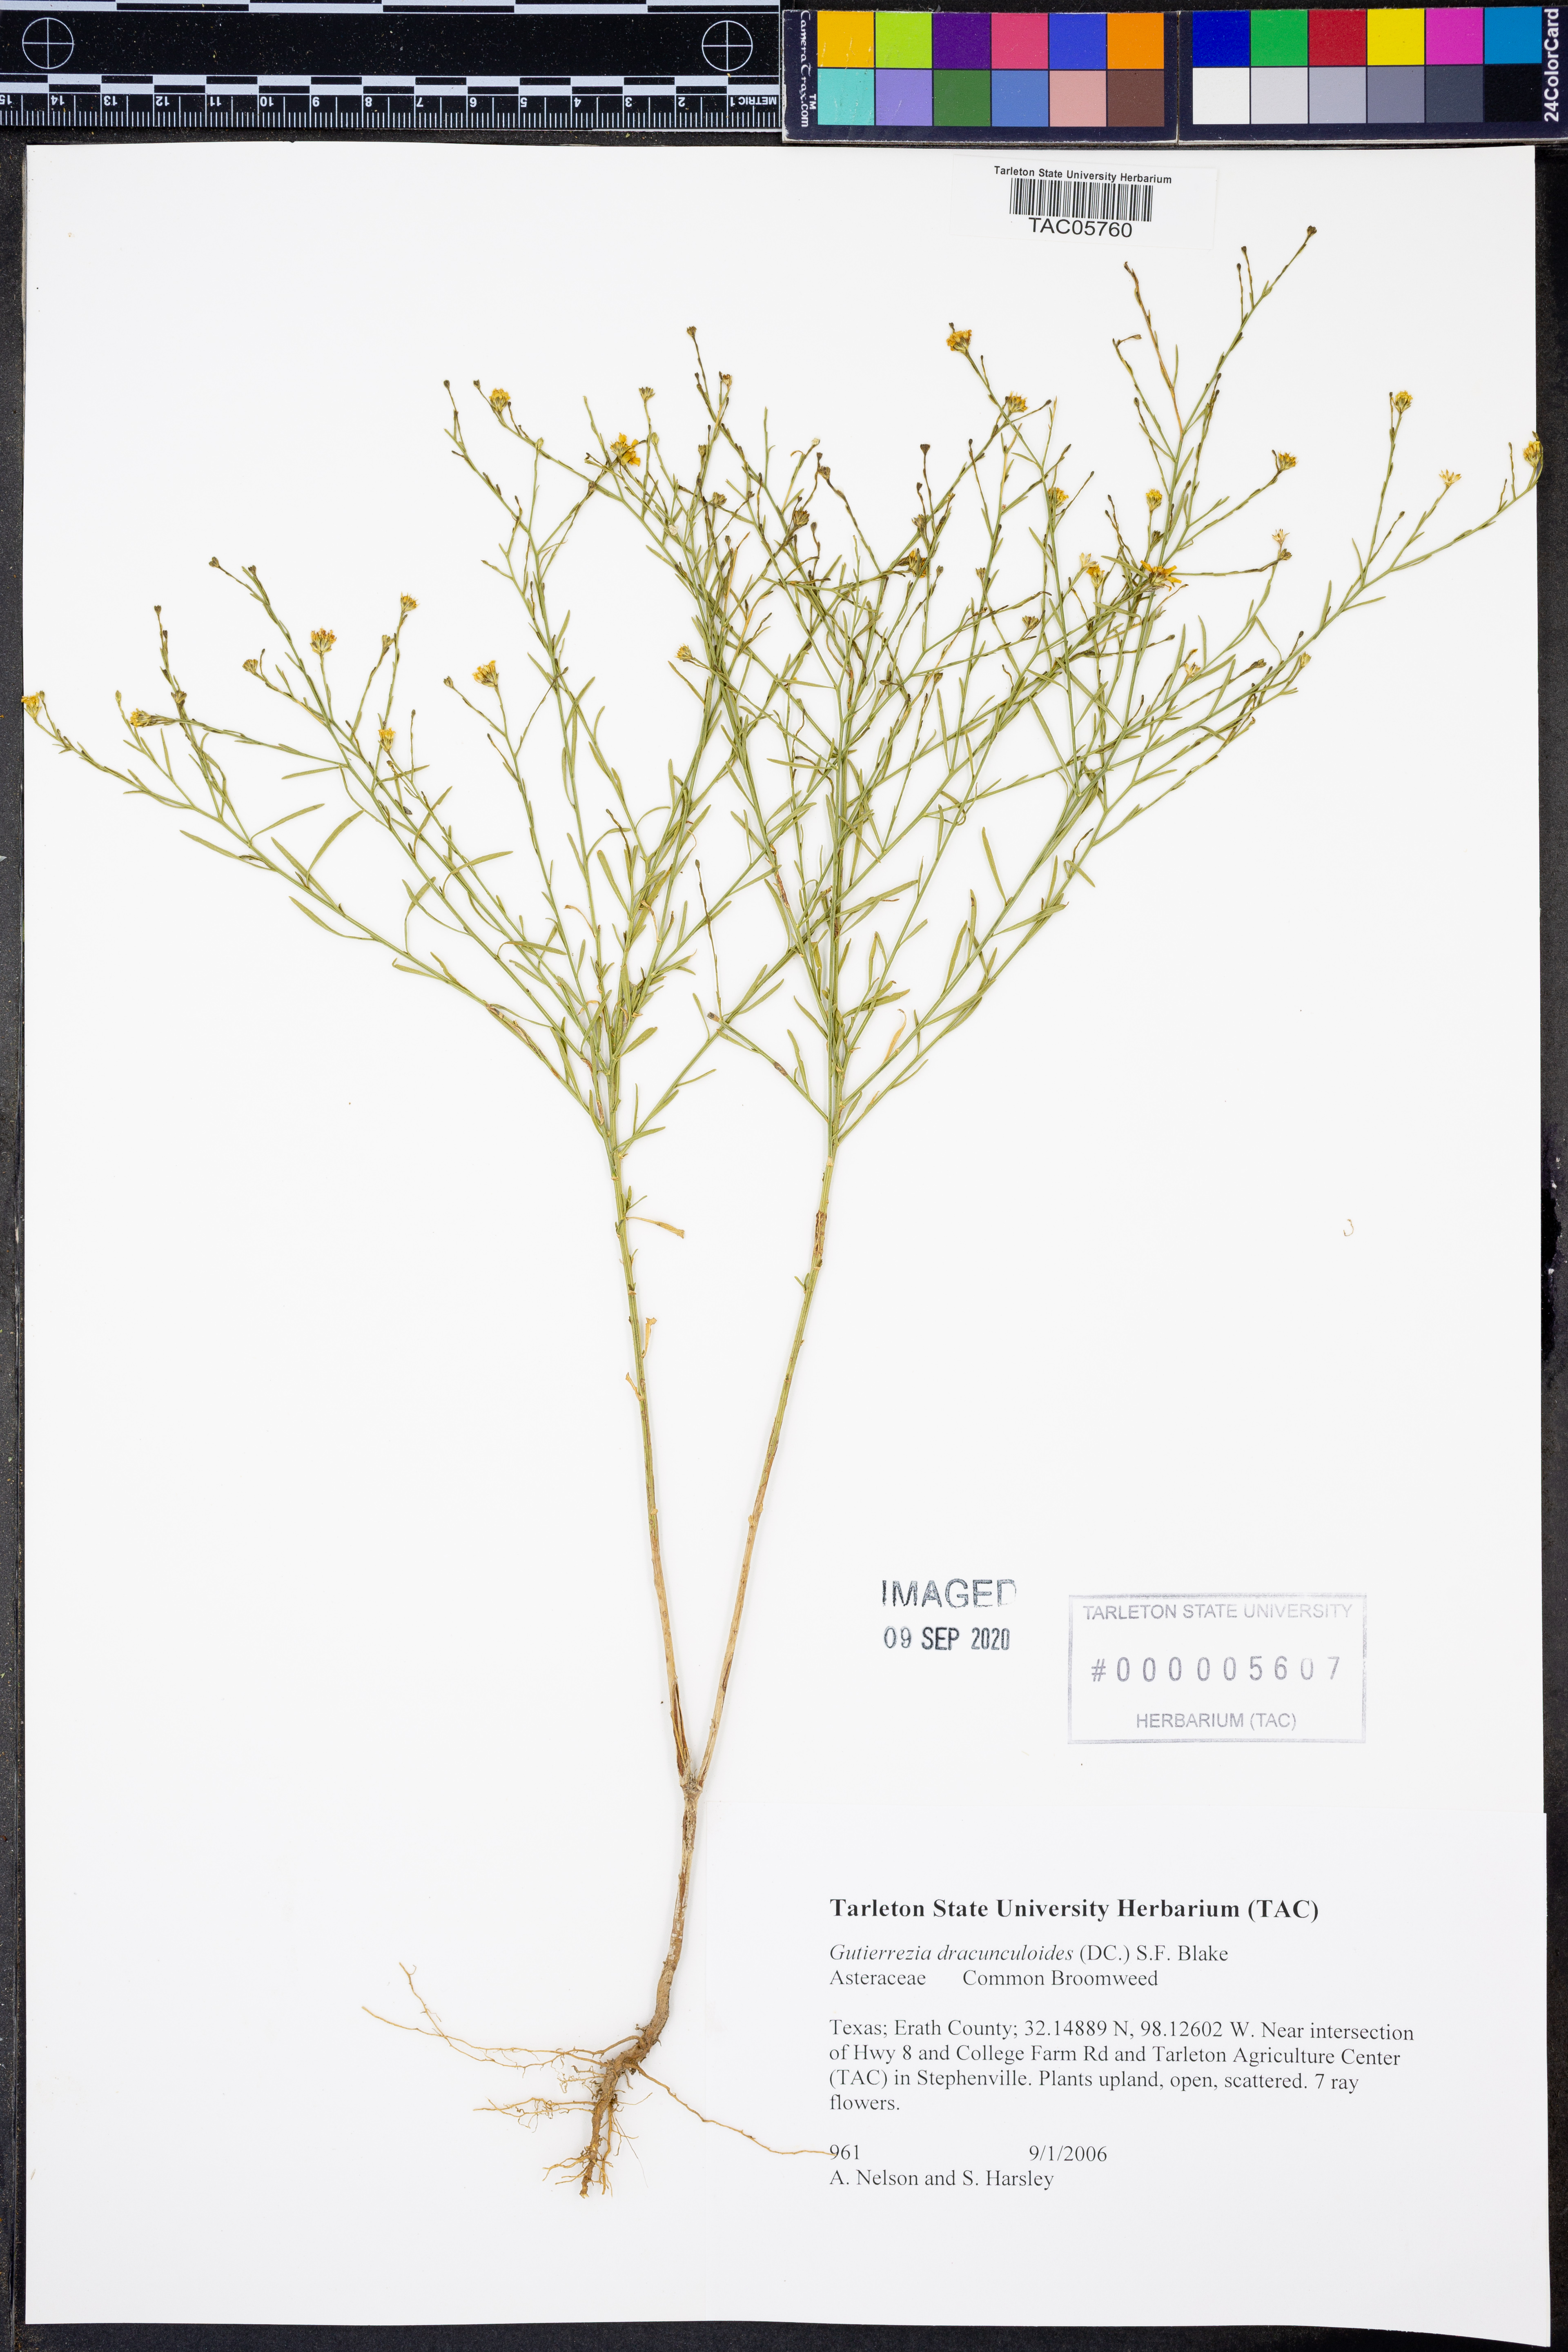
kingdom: Plantae
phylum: Tracheophyta
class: Magnoliopsida
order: Asterales
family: Asteraceae
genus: Amphiachyris
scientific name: Amphiachyris dracunculoides
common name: Broomweed
